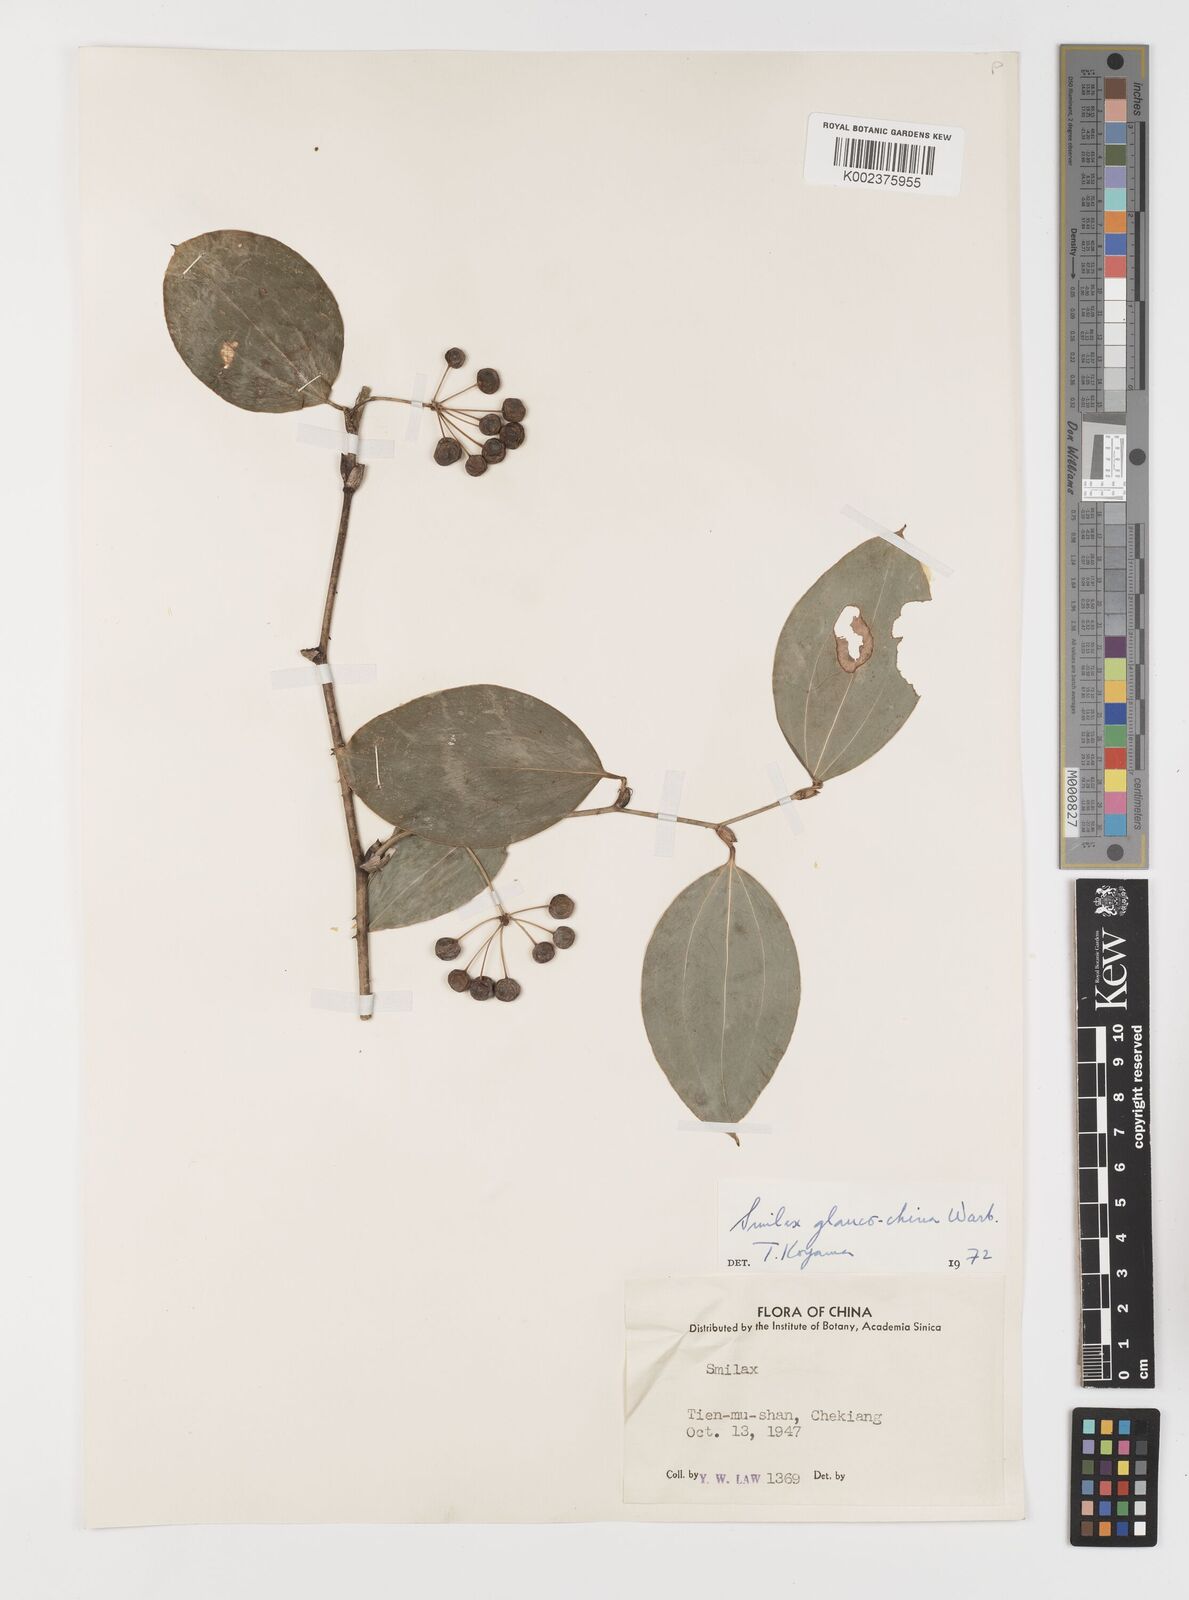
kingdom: Plantae
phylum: Tracheophyta
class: Liliopsida
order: Liliales
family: Smilacaceae
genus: Smilax
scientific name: Smilax glaucochina
